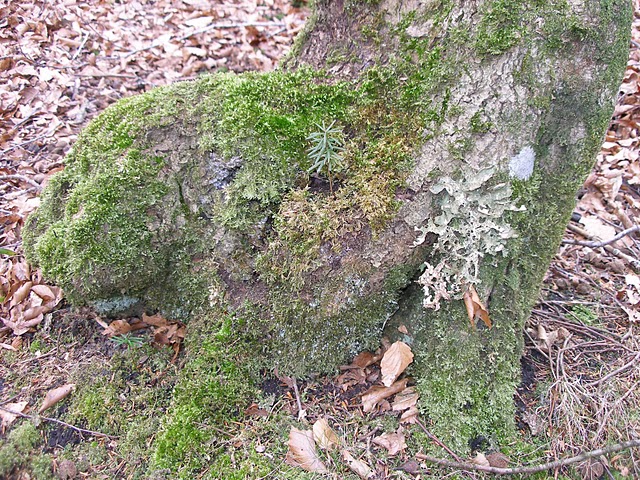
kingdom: Fungi
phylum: Ascomycota
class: Lecanoromycetes
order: Peltigerales
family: Lobariaceae
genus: Lobaria
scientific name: Lobaria pulmonaria
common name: almindelig lungelav
